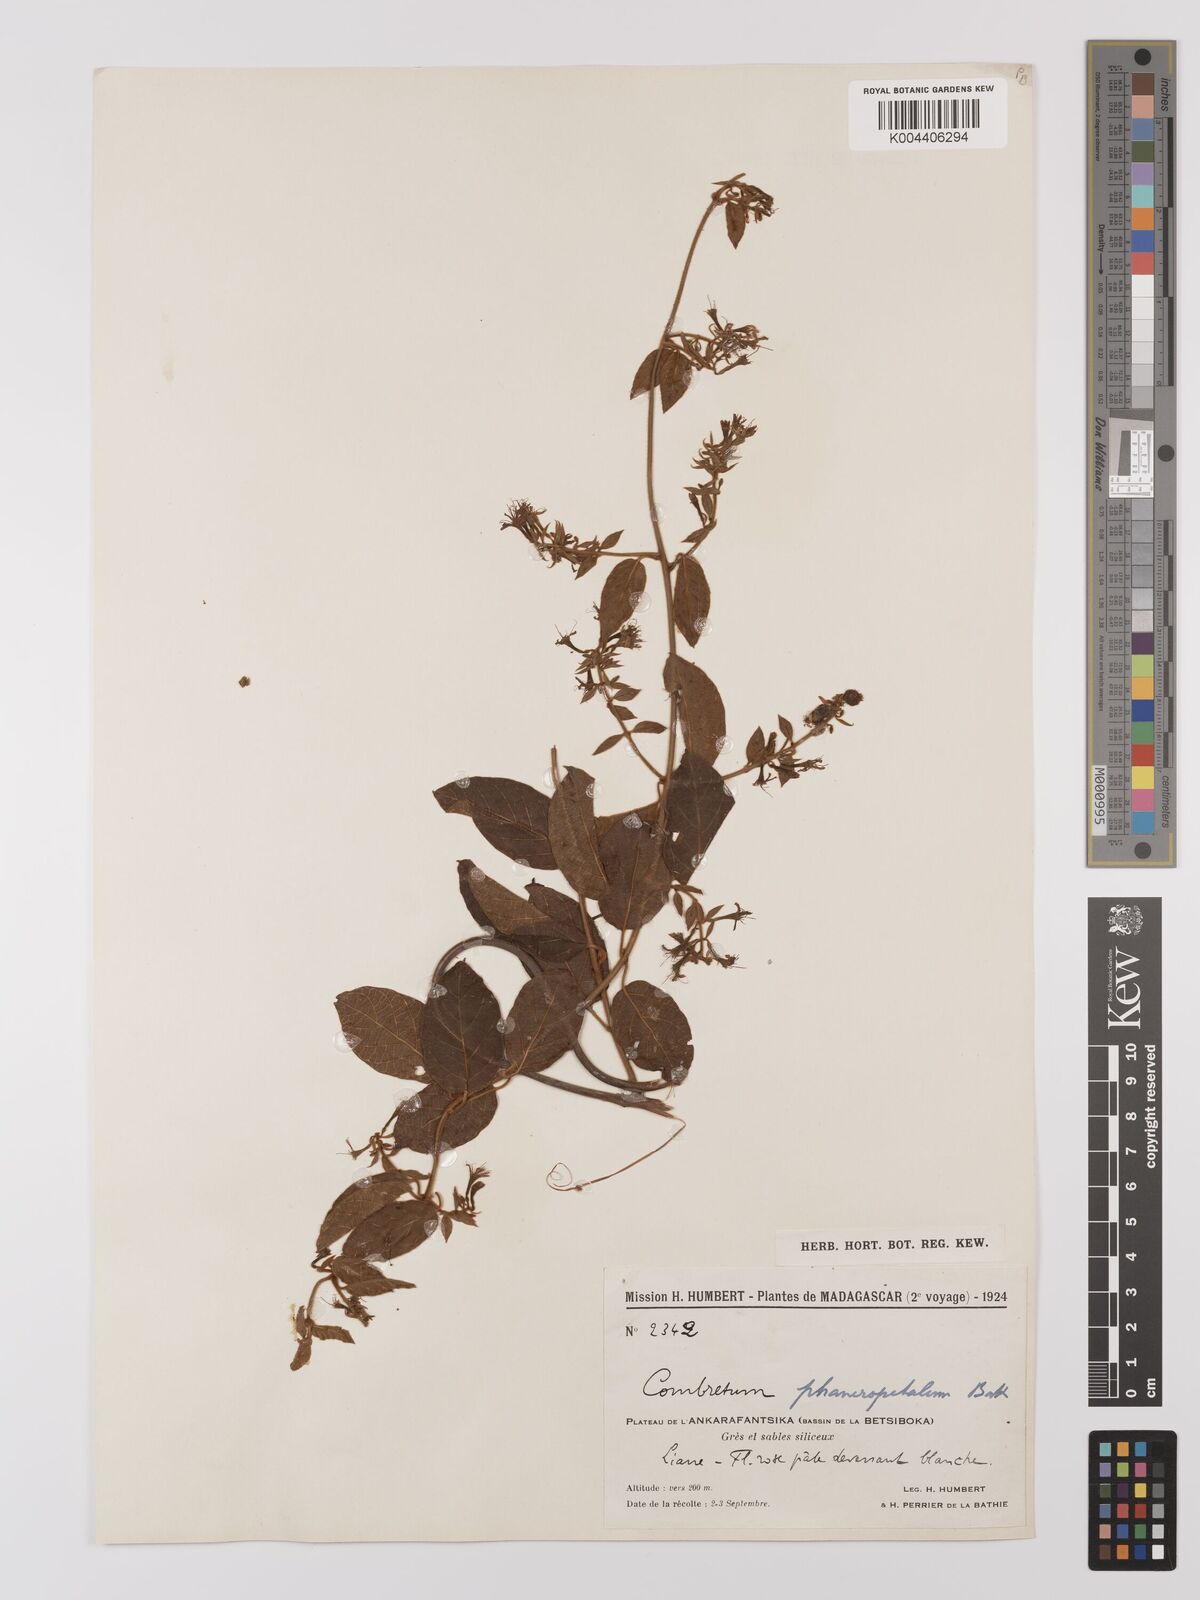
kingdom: Plantae
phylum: Tracheophyta
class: Magnoliopsida
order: Myrtales
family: Combretaceae
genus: Combretum
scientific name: Combretum albiflorum
